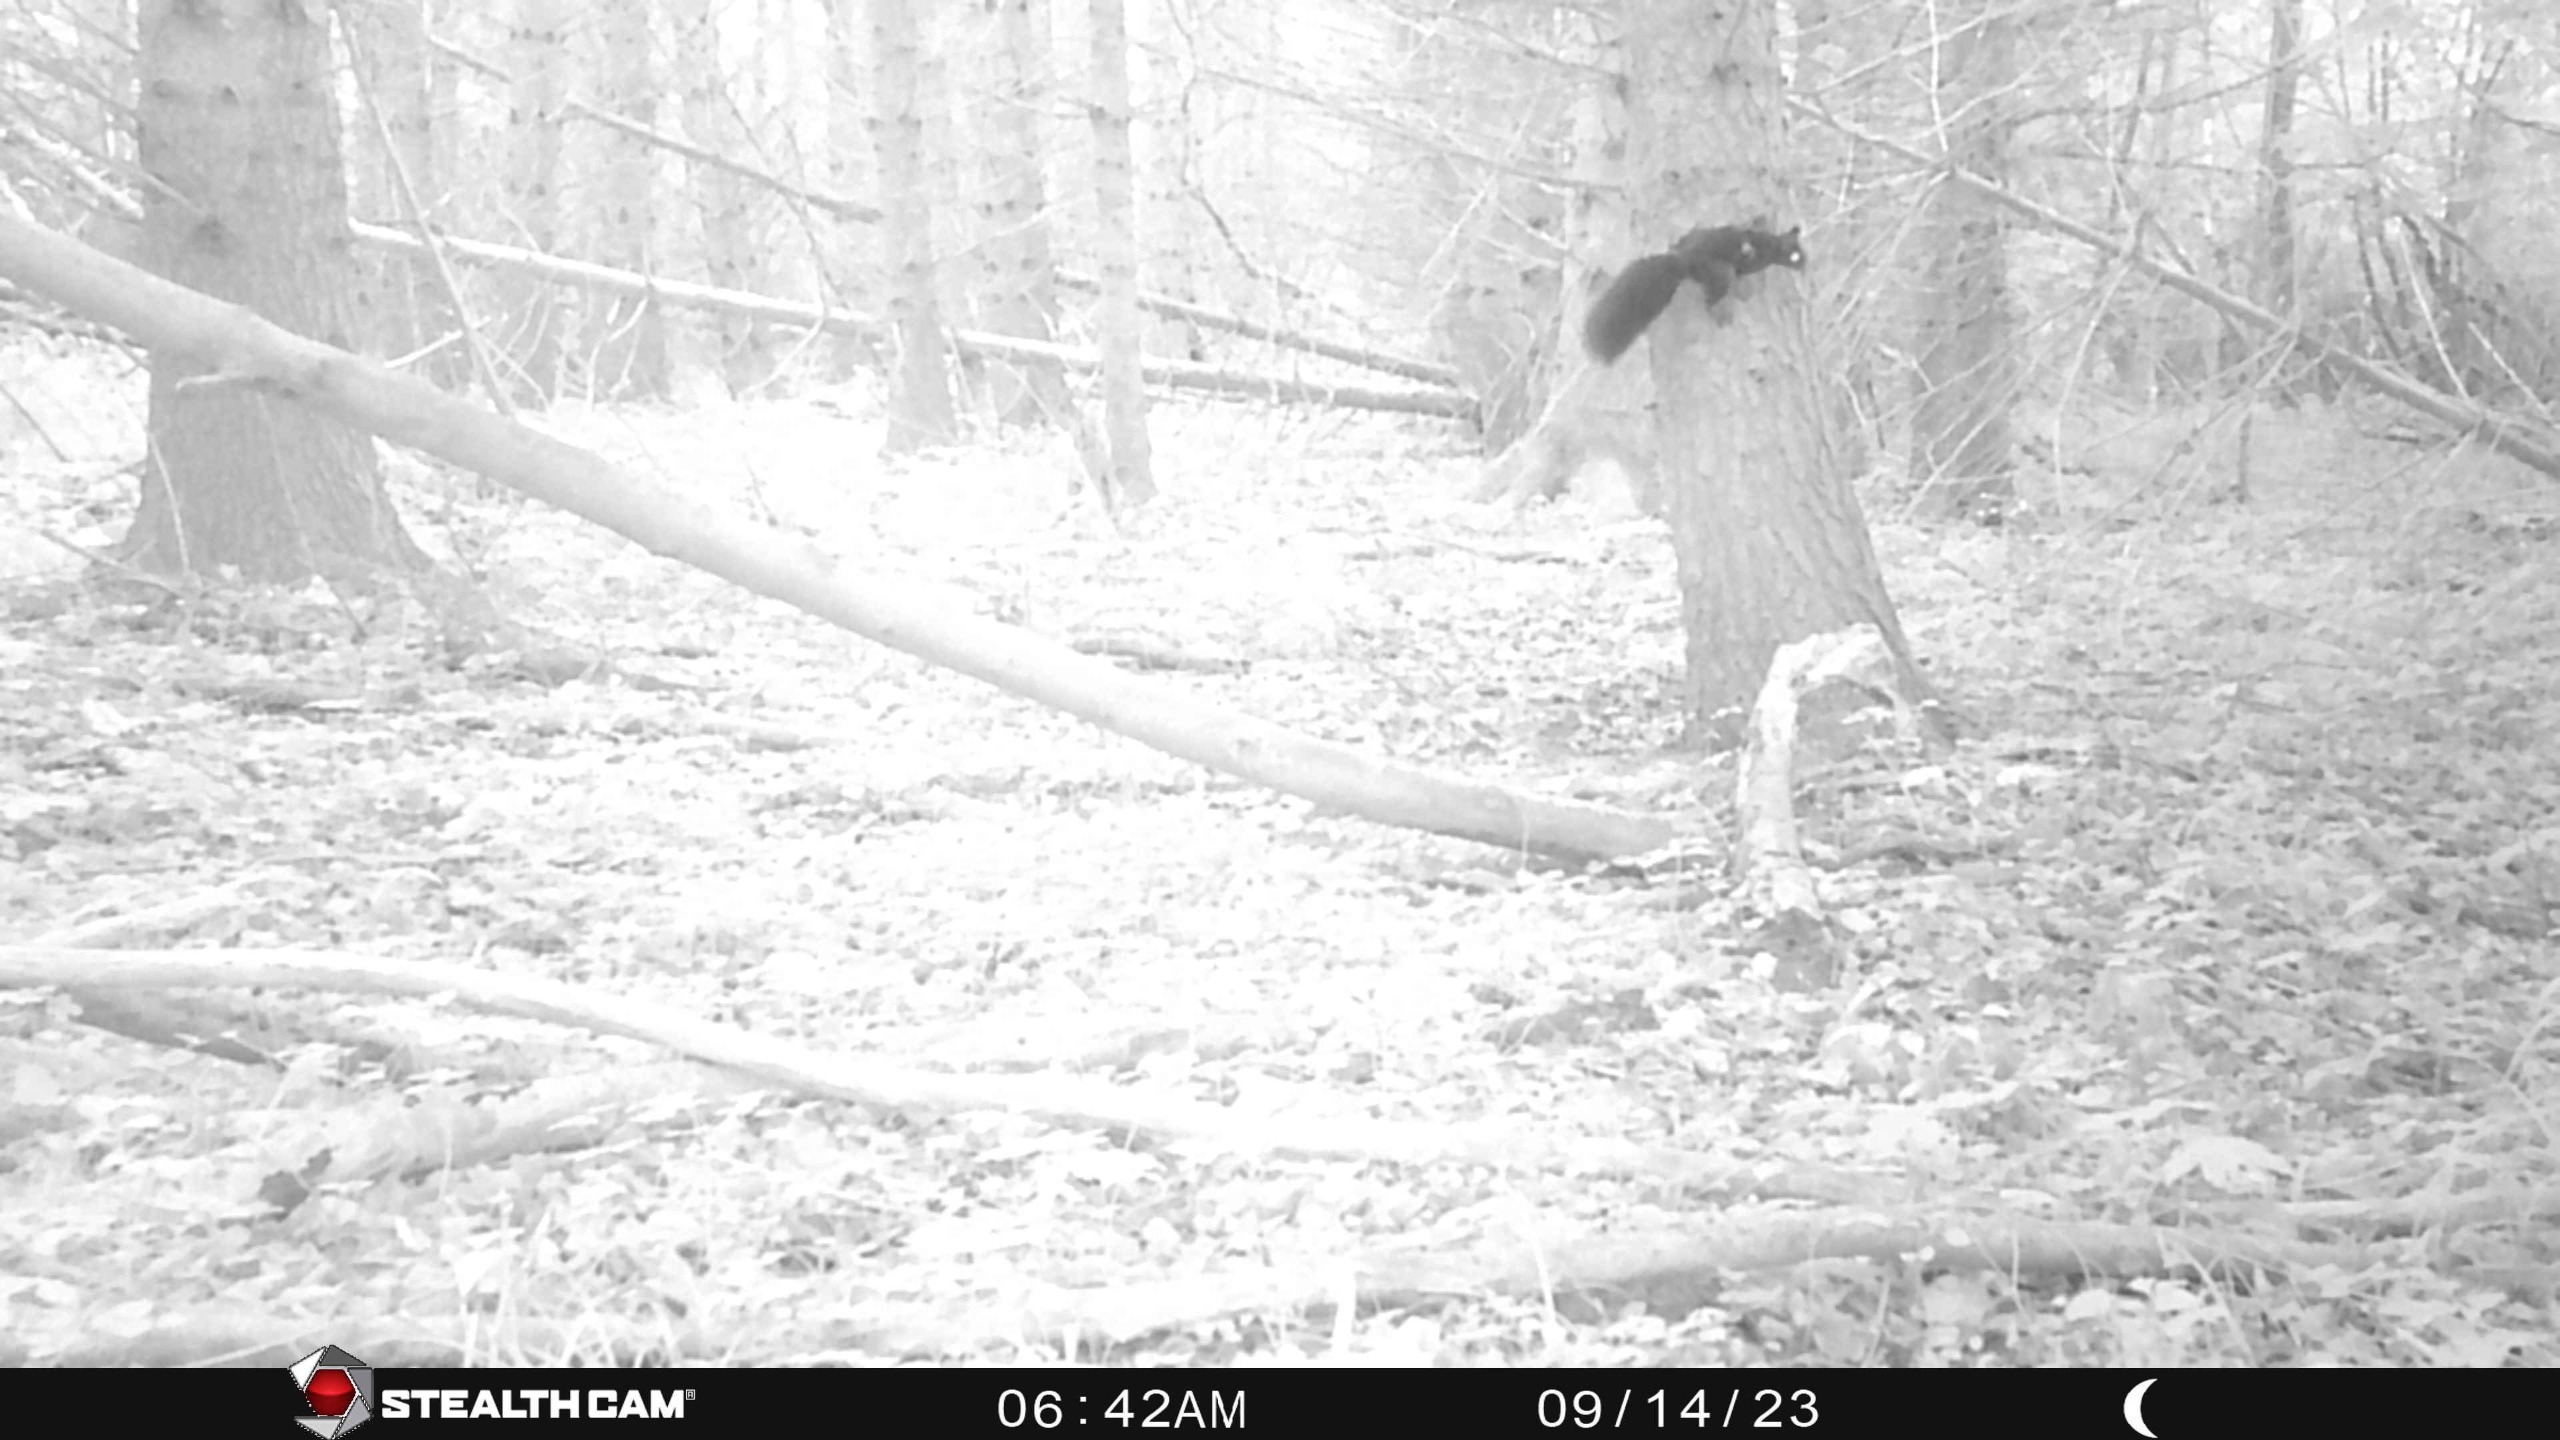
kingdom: Animalia
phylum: Chordata
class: Mammalia
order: Rodentia
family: Sciuridae
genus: Sciurus
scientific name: Sciurus vulgaris
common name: Egern
